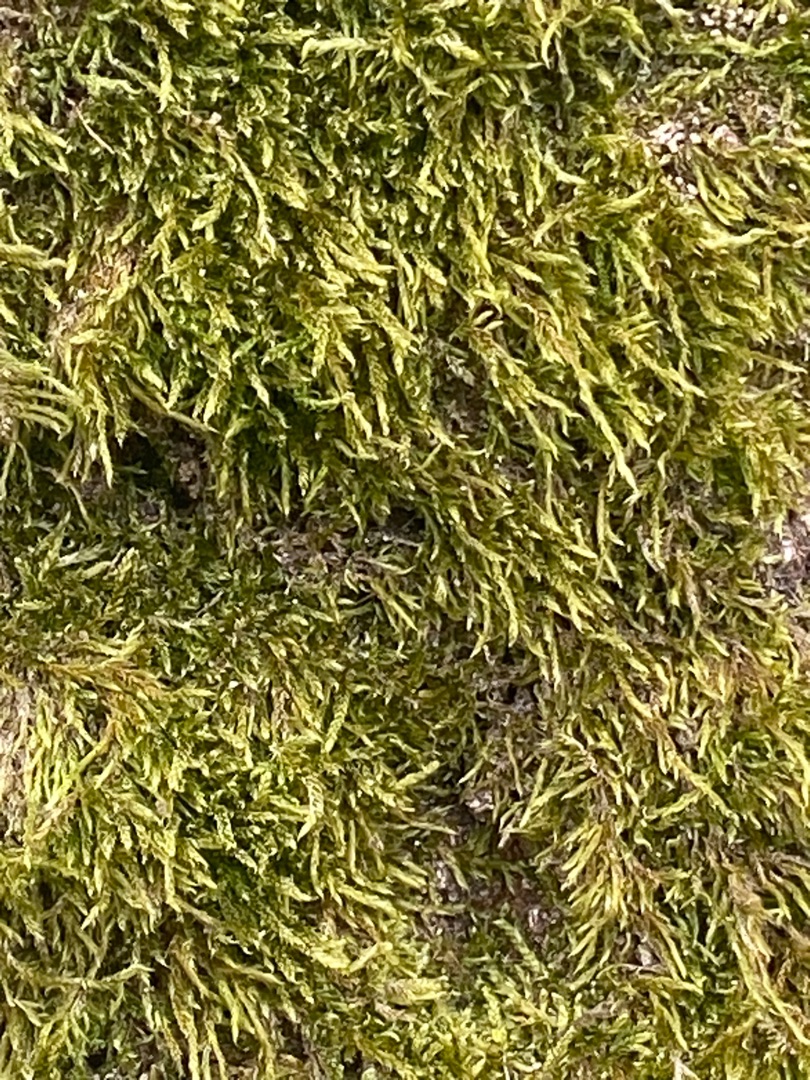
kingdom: Plantae
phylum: Bryophyta
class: Bryopsida
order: Hypnales
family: Hypnaceae
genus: Hypnum
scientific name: Hypnum cupressiforme
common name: Almindelig cypresmos
